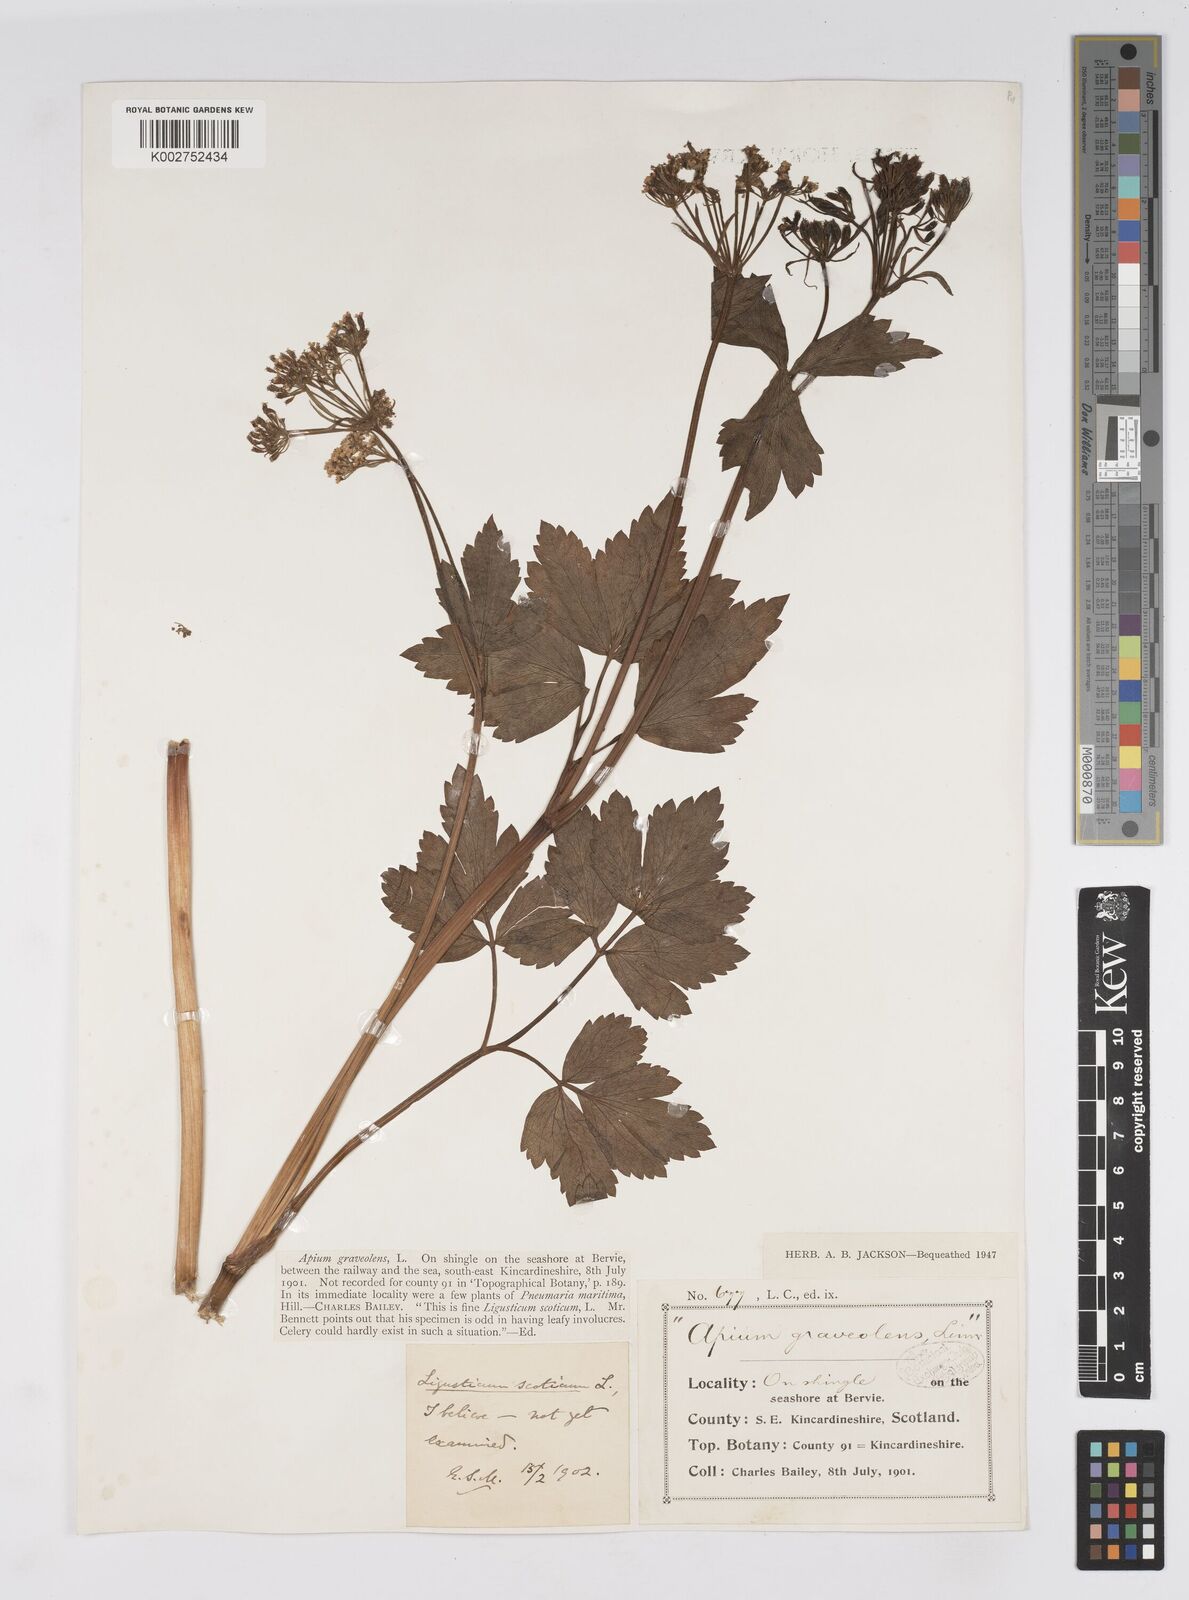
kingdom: Plantae
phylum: Tracheophyta
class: Magnoliopsida
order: Apiales
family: Apiaceae
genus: Apium
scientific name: Apium graveolens
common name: Wild celery
